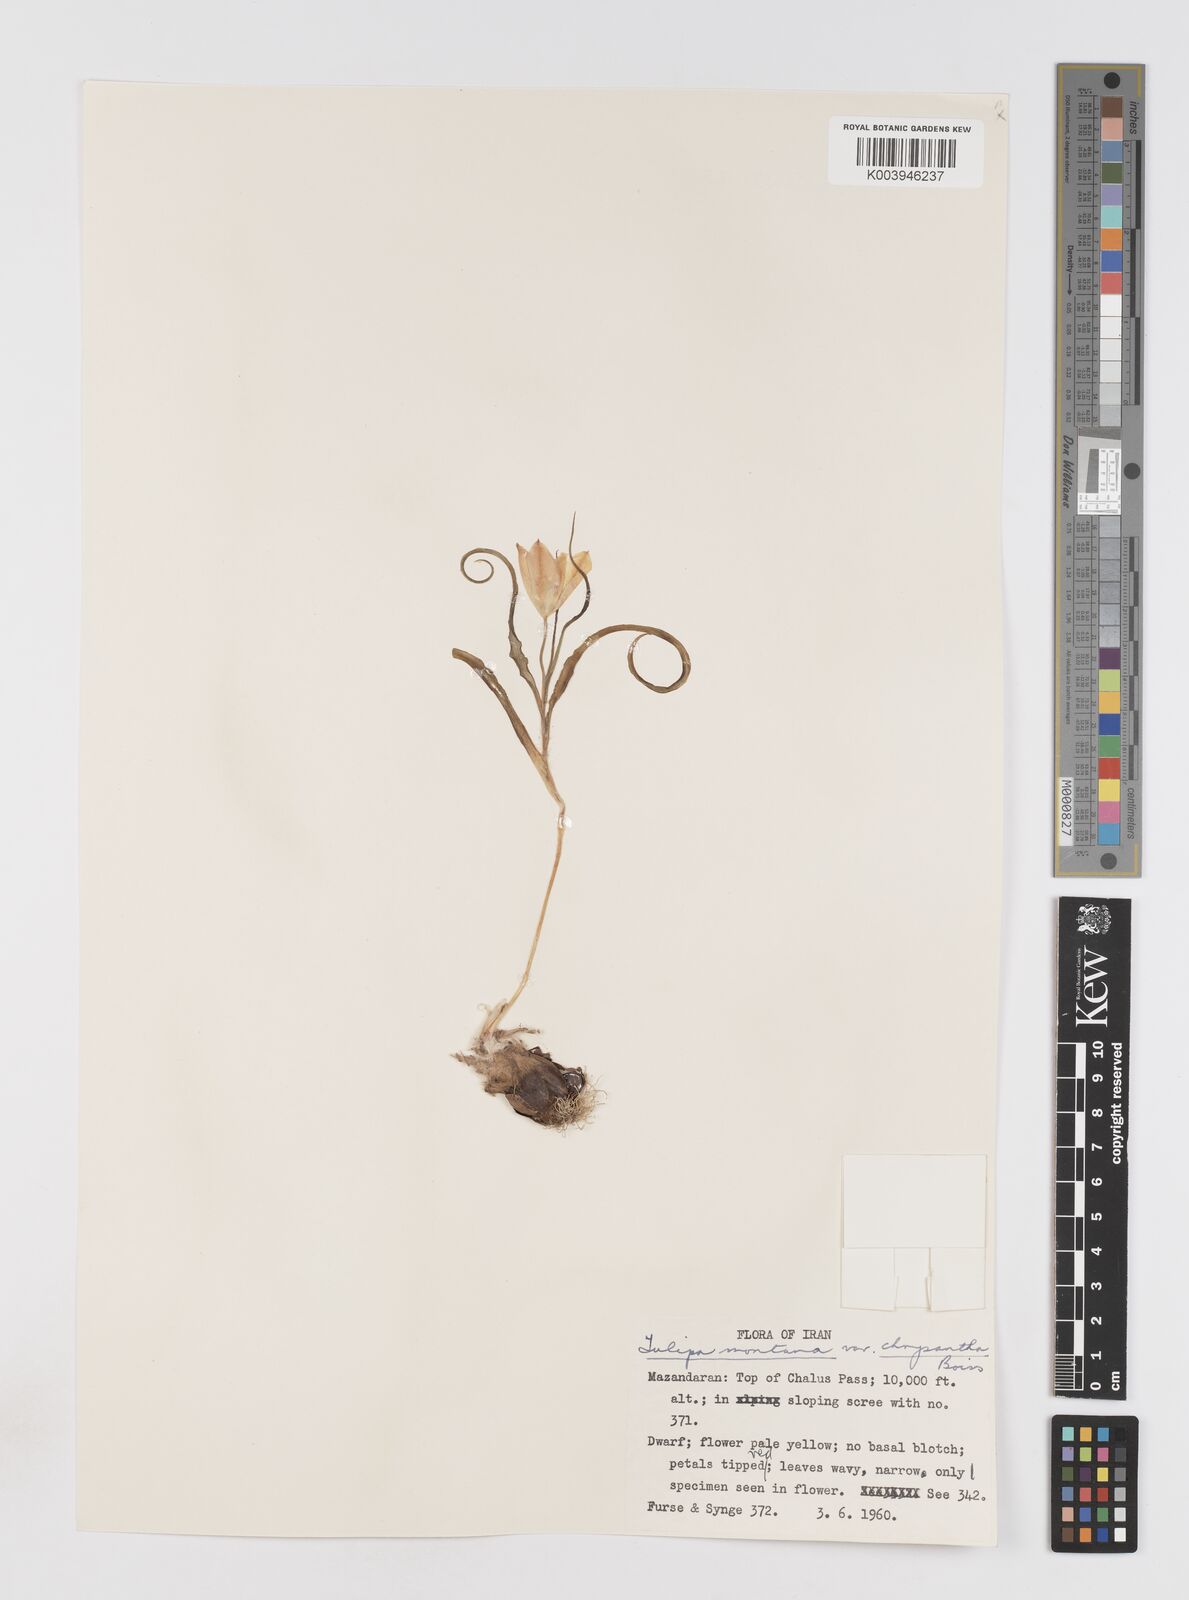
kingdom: Plantae
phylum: Tracheophyta
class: Liliopsida
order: Liliales
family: Liliaceae
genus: Tulipa
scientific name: Tulipa montana
